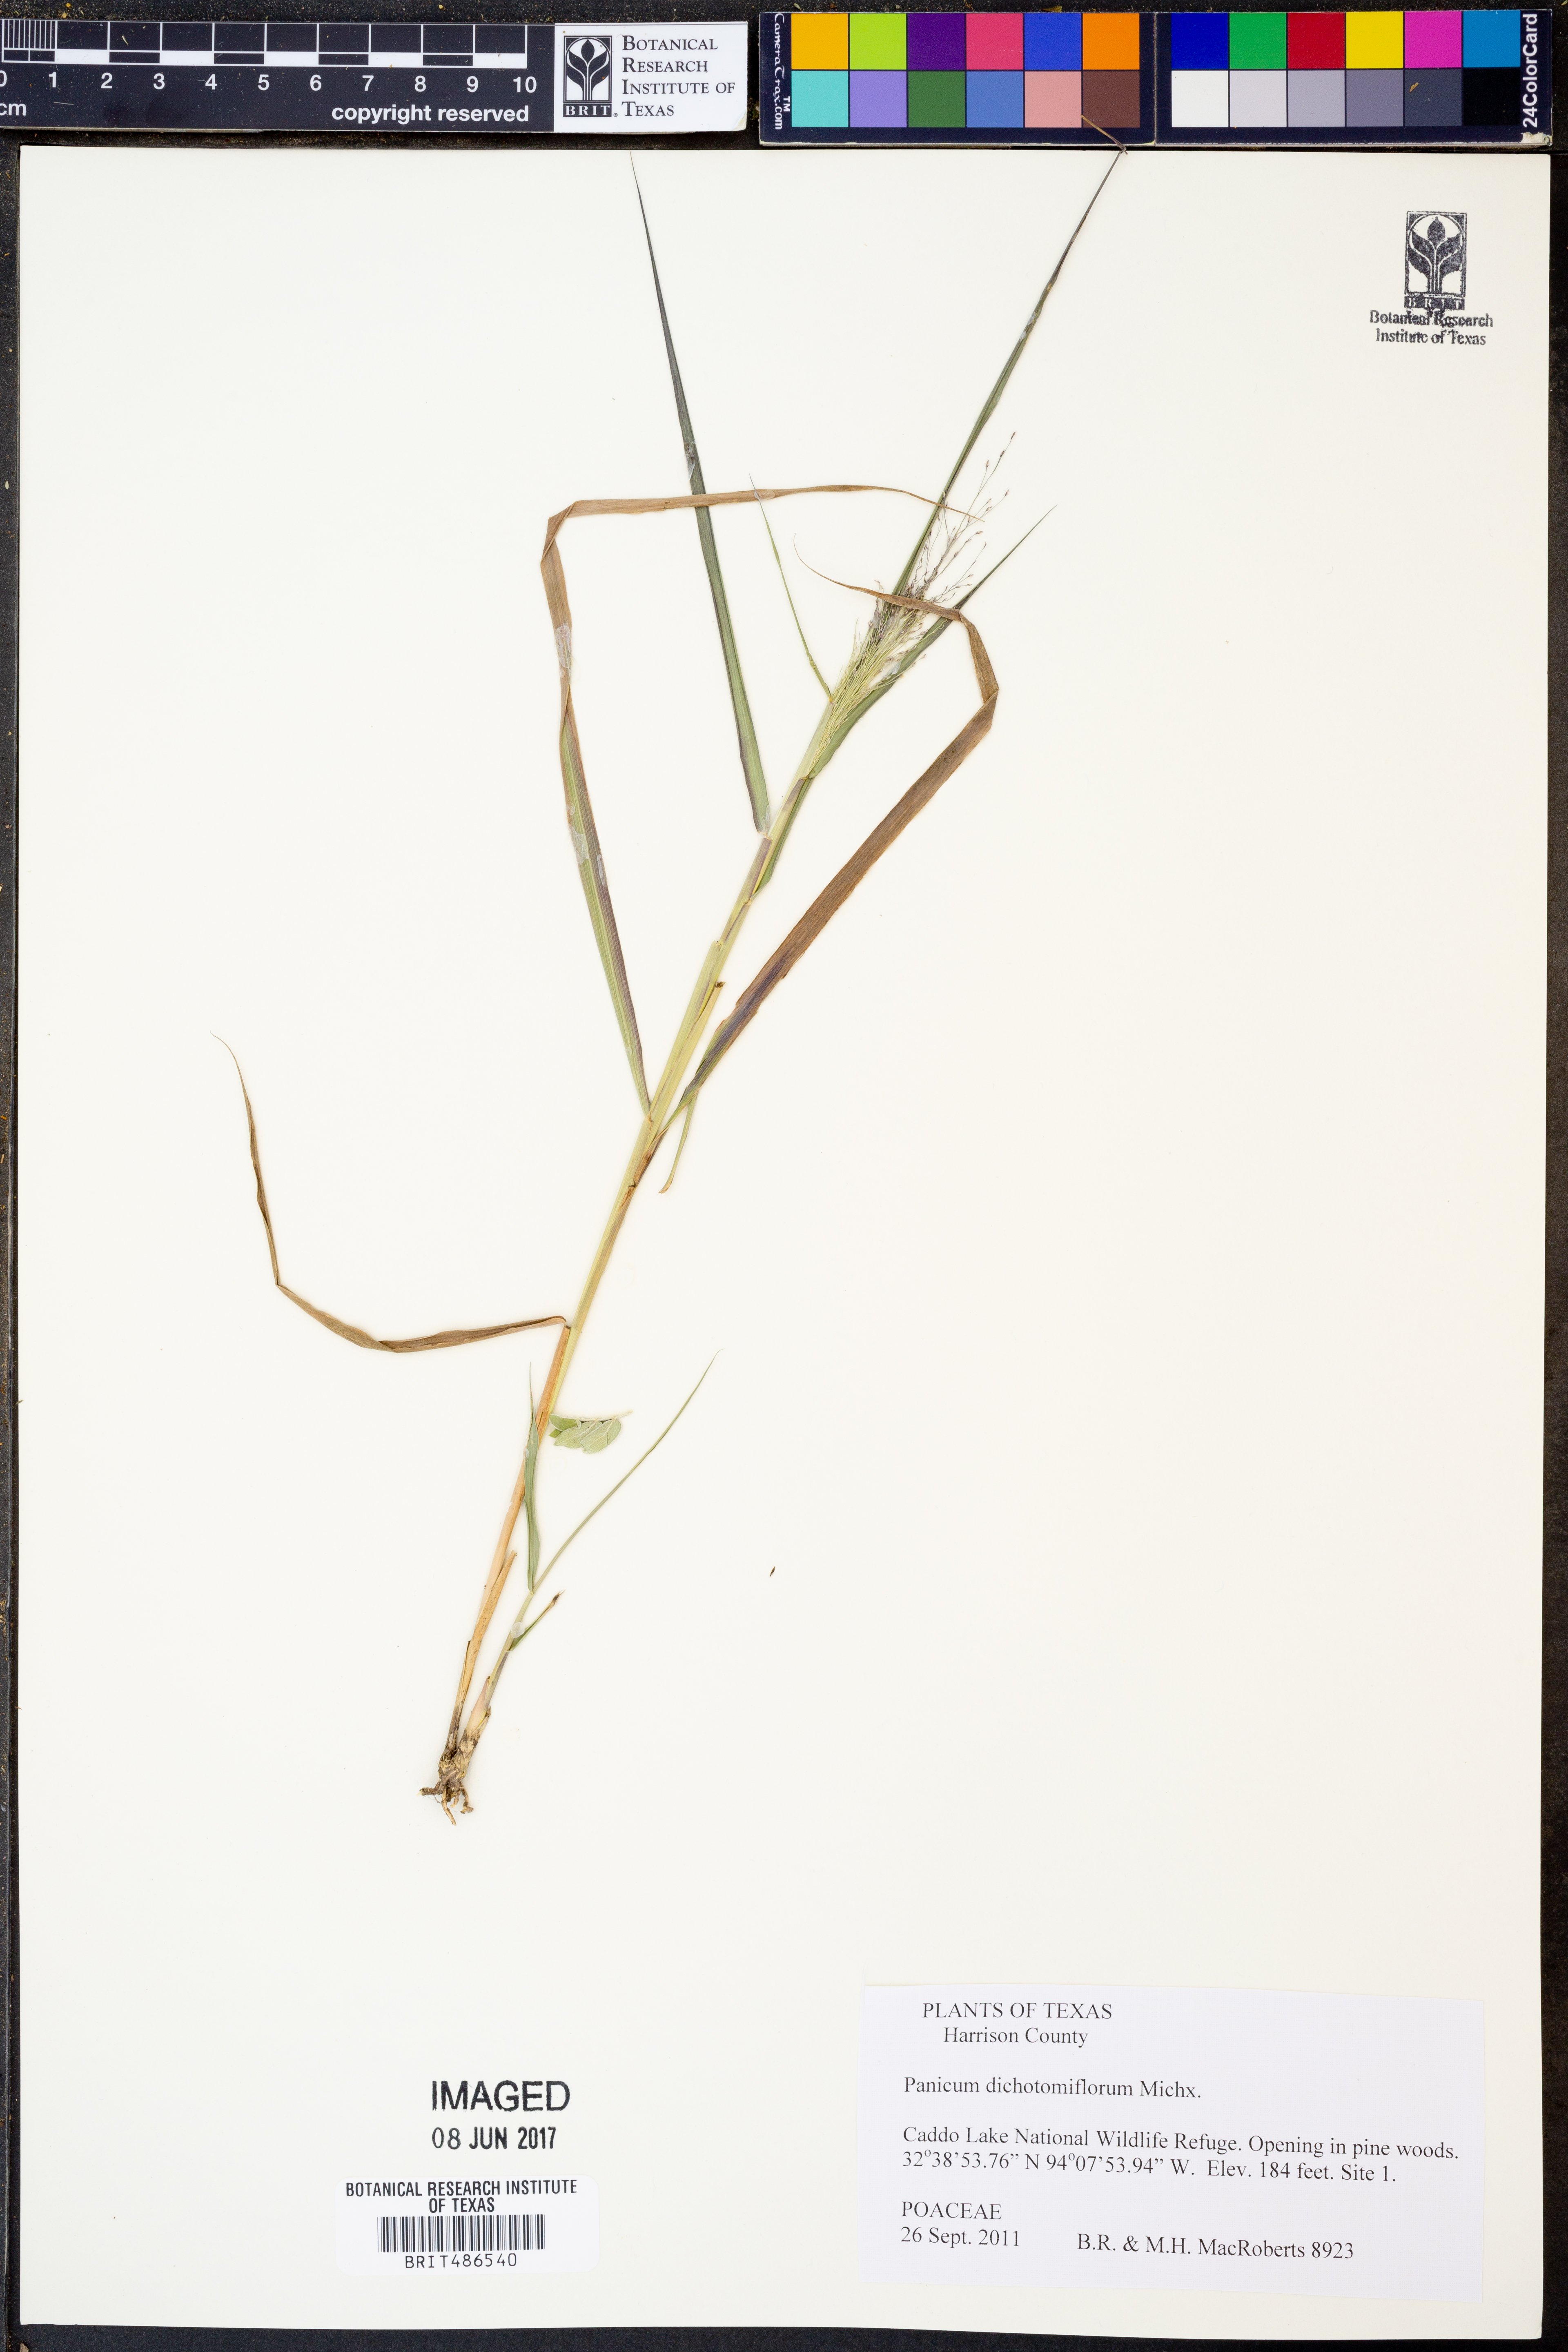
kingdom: Plantae
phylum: Tracheophyta
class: Liliopsida
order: Poales
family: Poaceae
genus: Panicum
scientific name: Panicum dichotomiflorum
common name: Autumn millet
